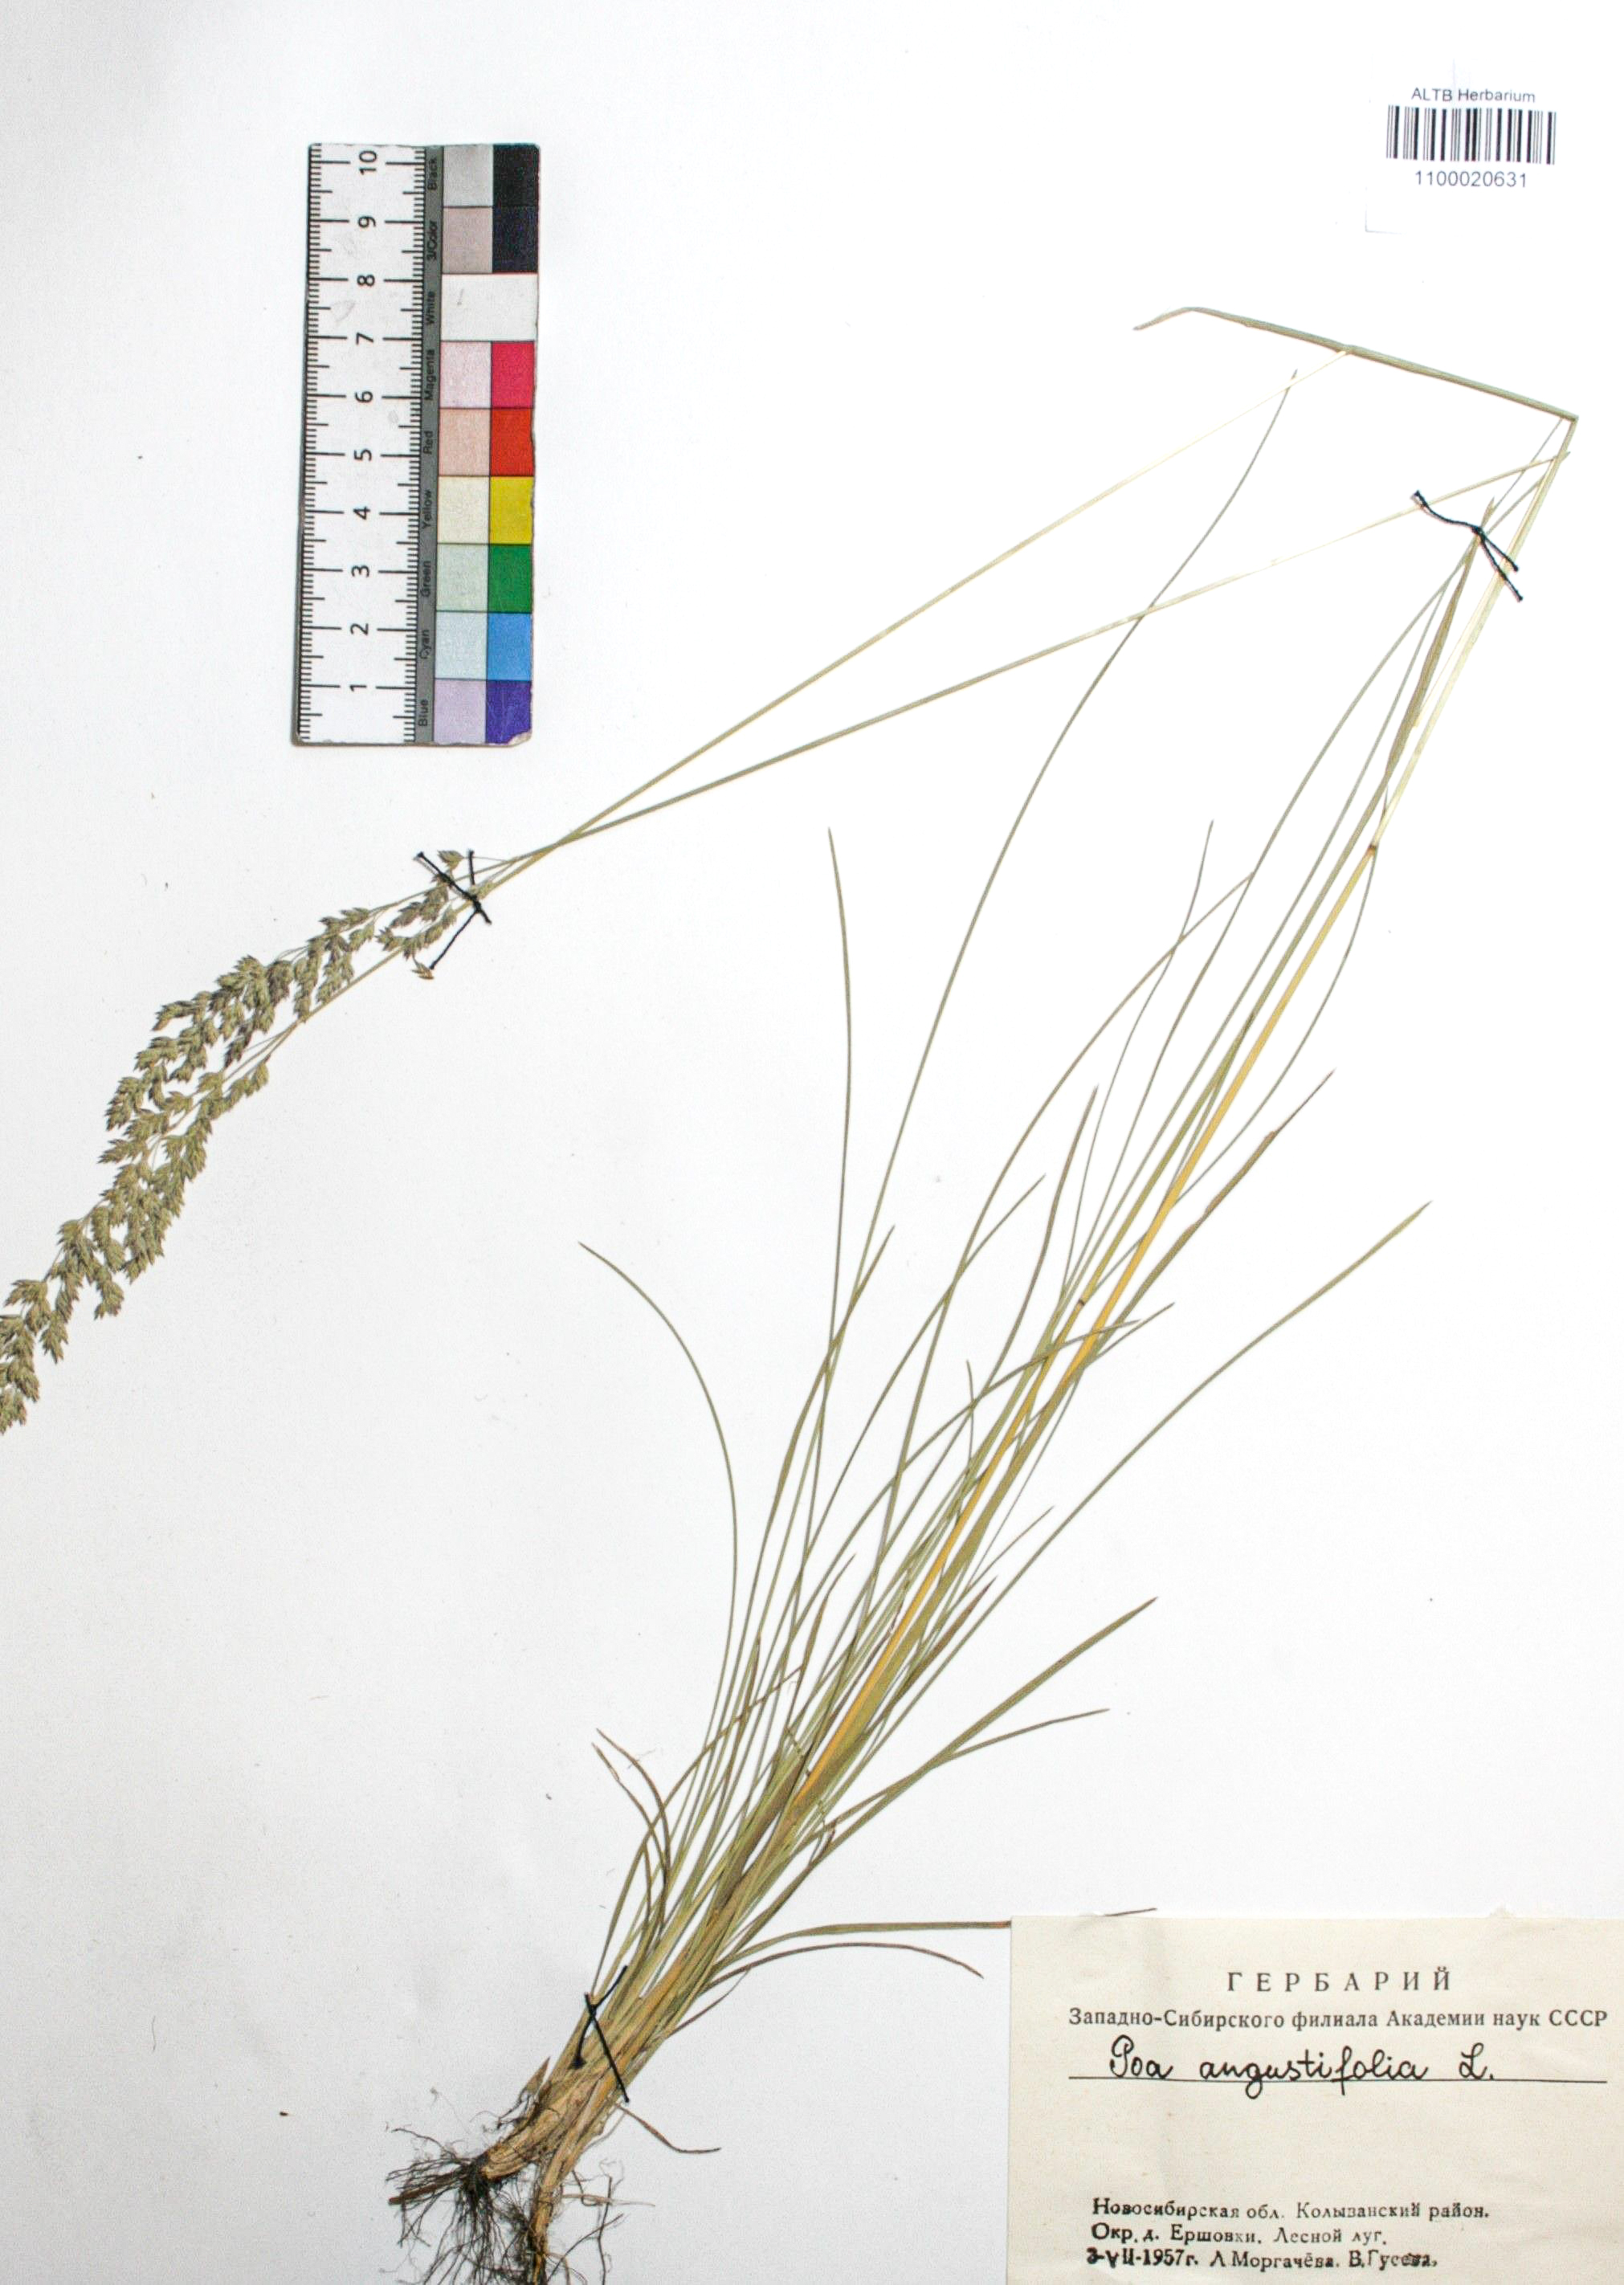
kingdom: Plantae
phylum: Tracheophyta
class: Liliopsida
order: Poales
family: Poaceae
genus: Poa
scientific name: Poa angustifolia
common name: Narrow-leaved meadow-grass
